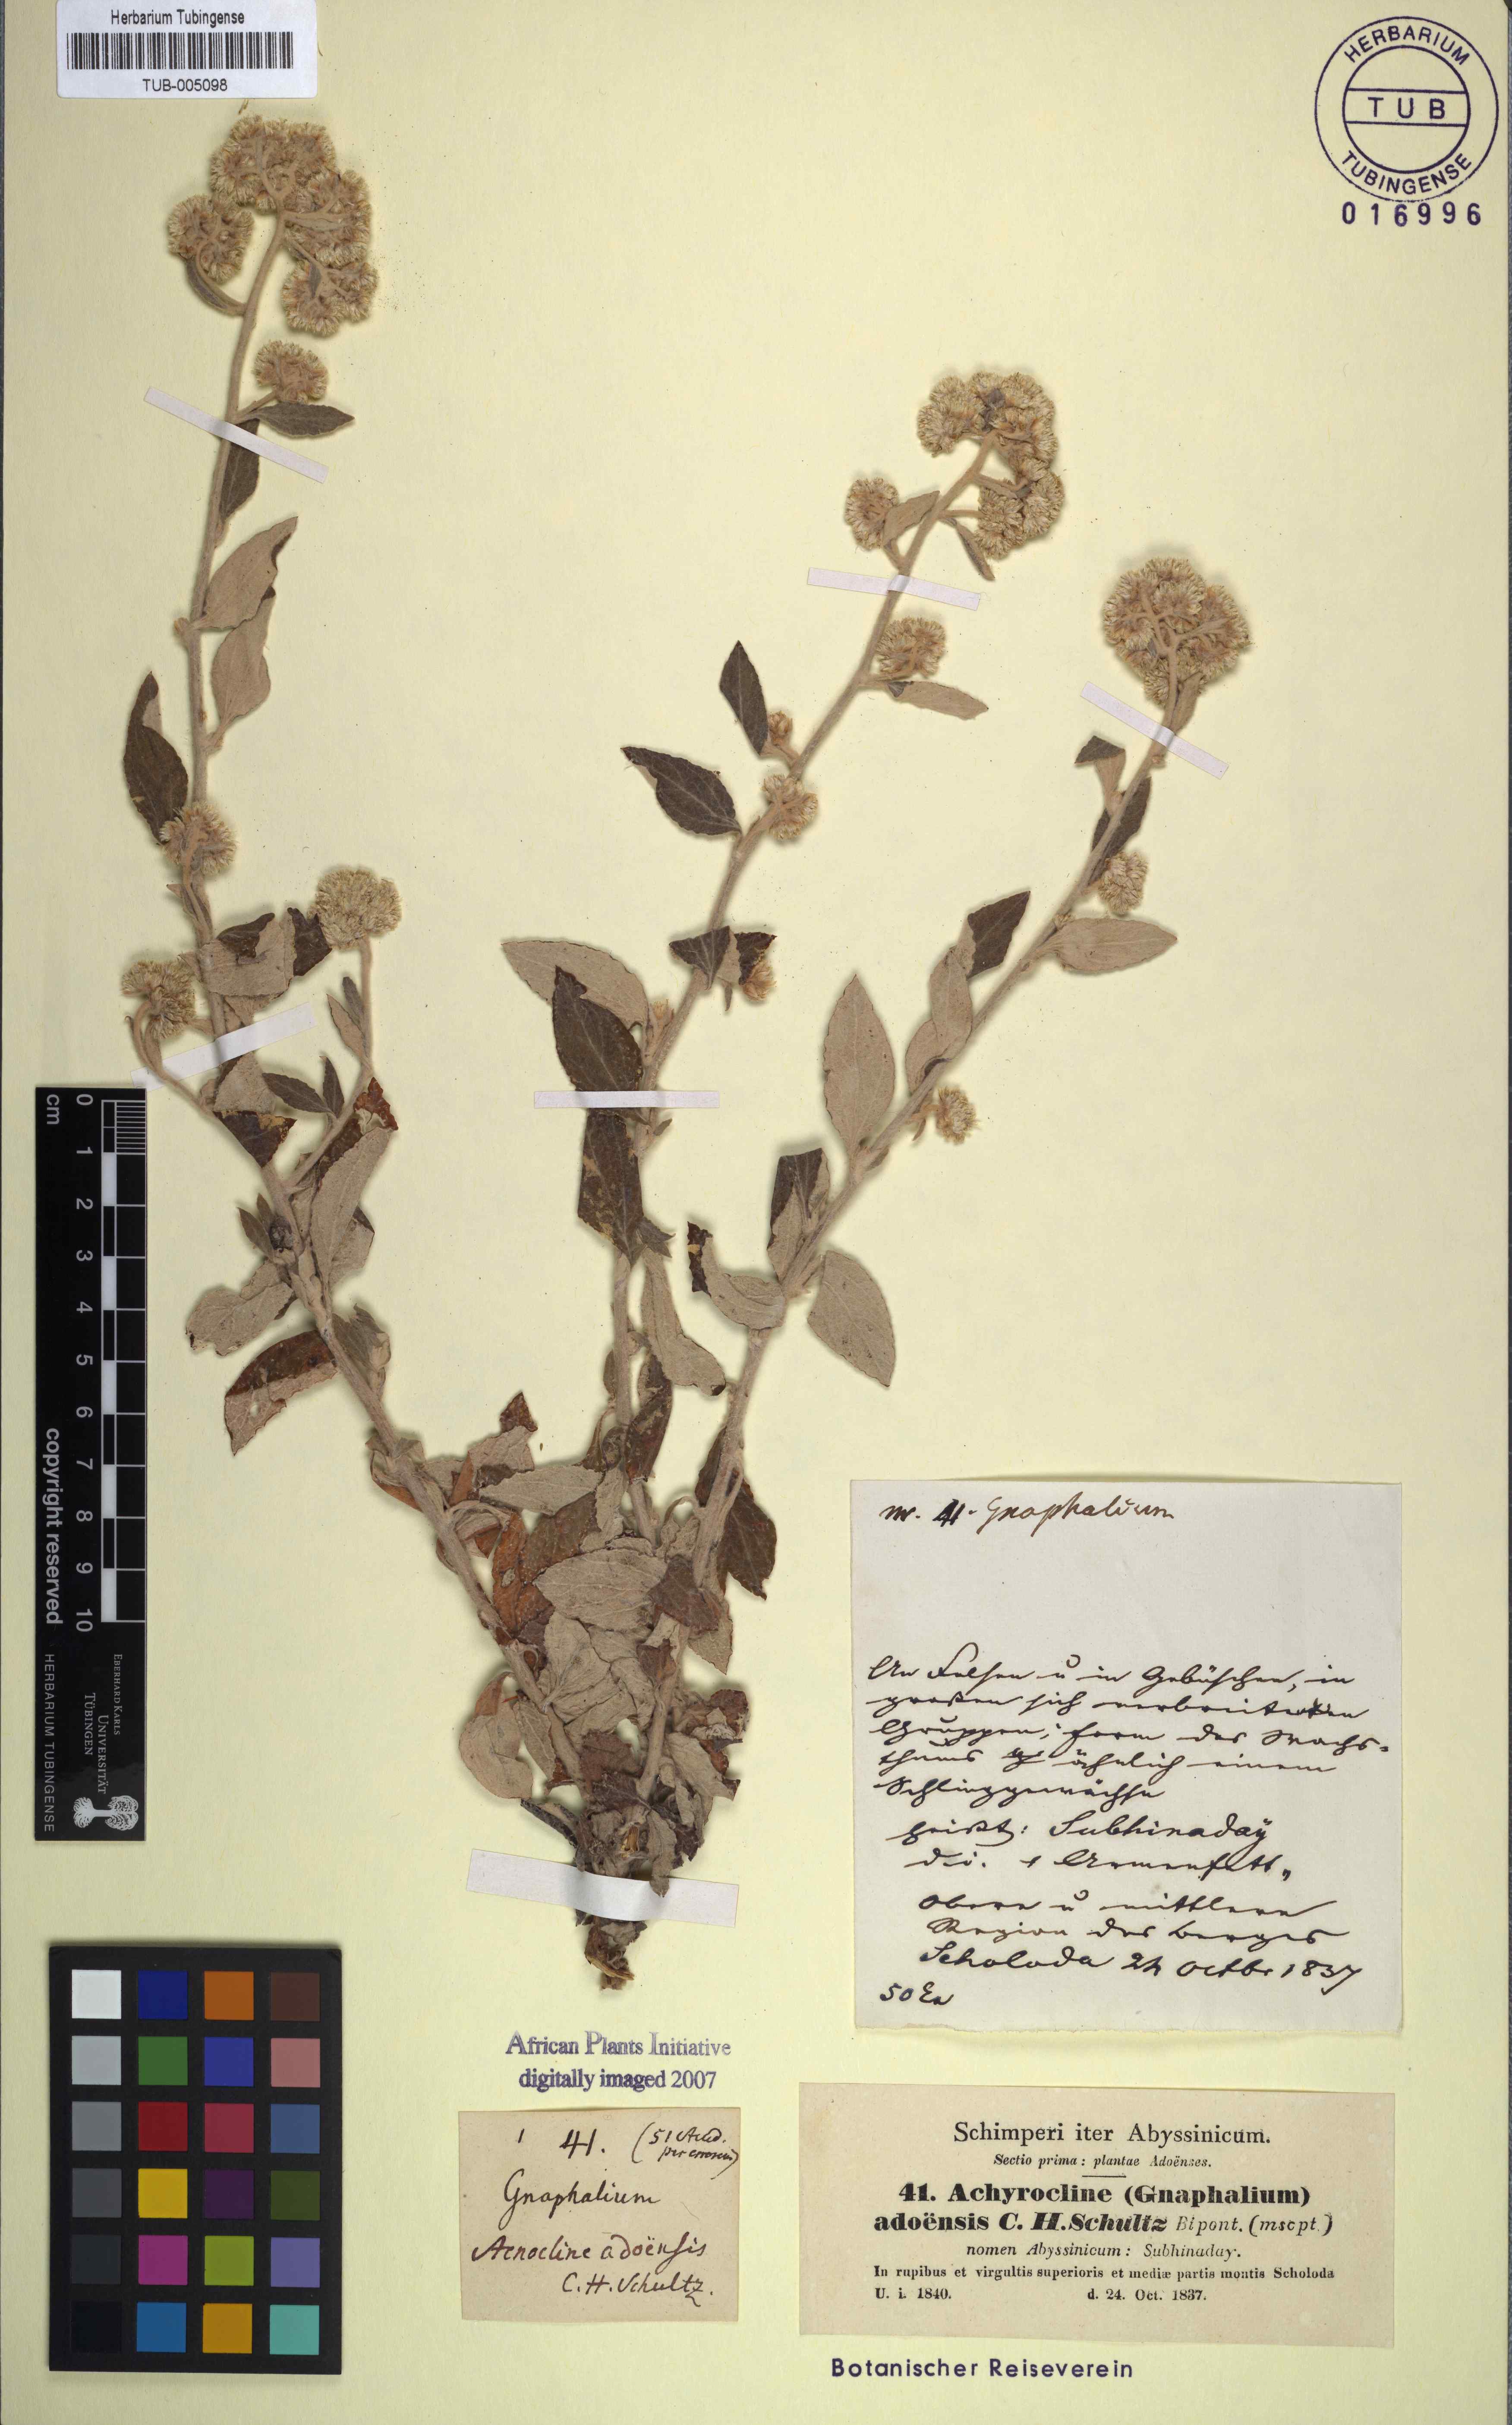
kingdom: Plantae
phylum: Tracheophyta
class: Magnoliopsida
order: Asterales
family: Asteraceae
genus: Helichrysum
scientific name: Helichrysum schimperi
